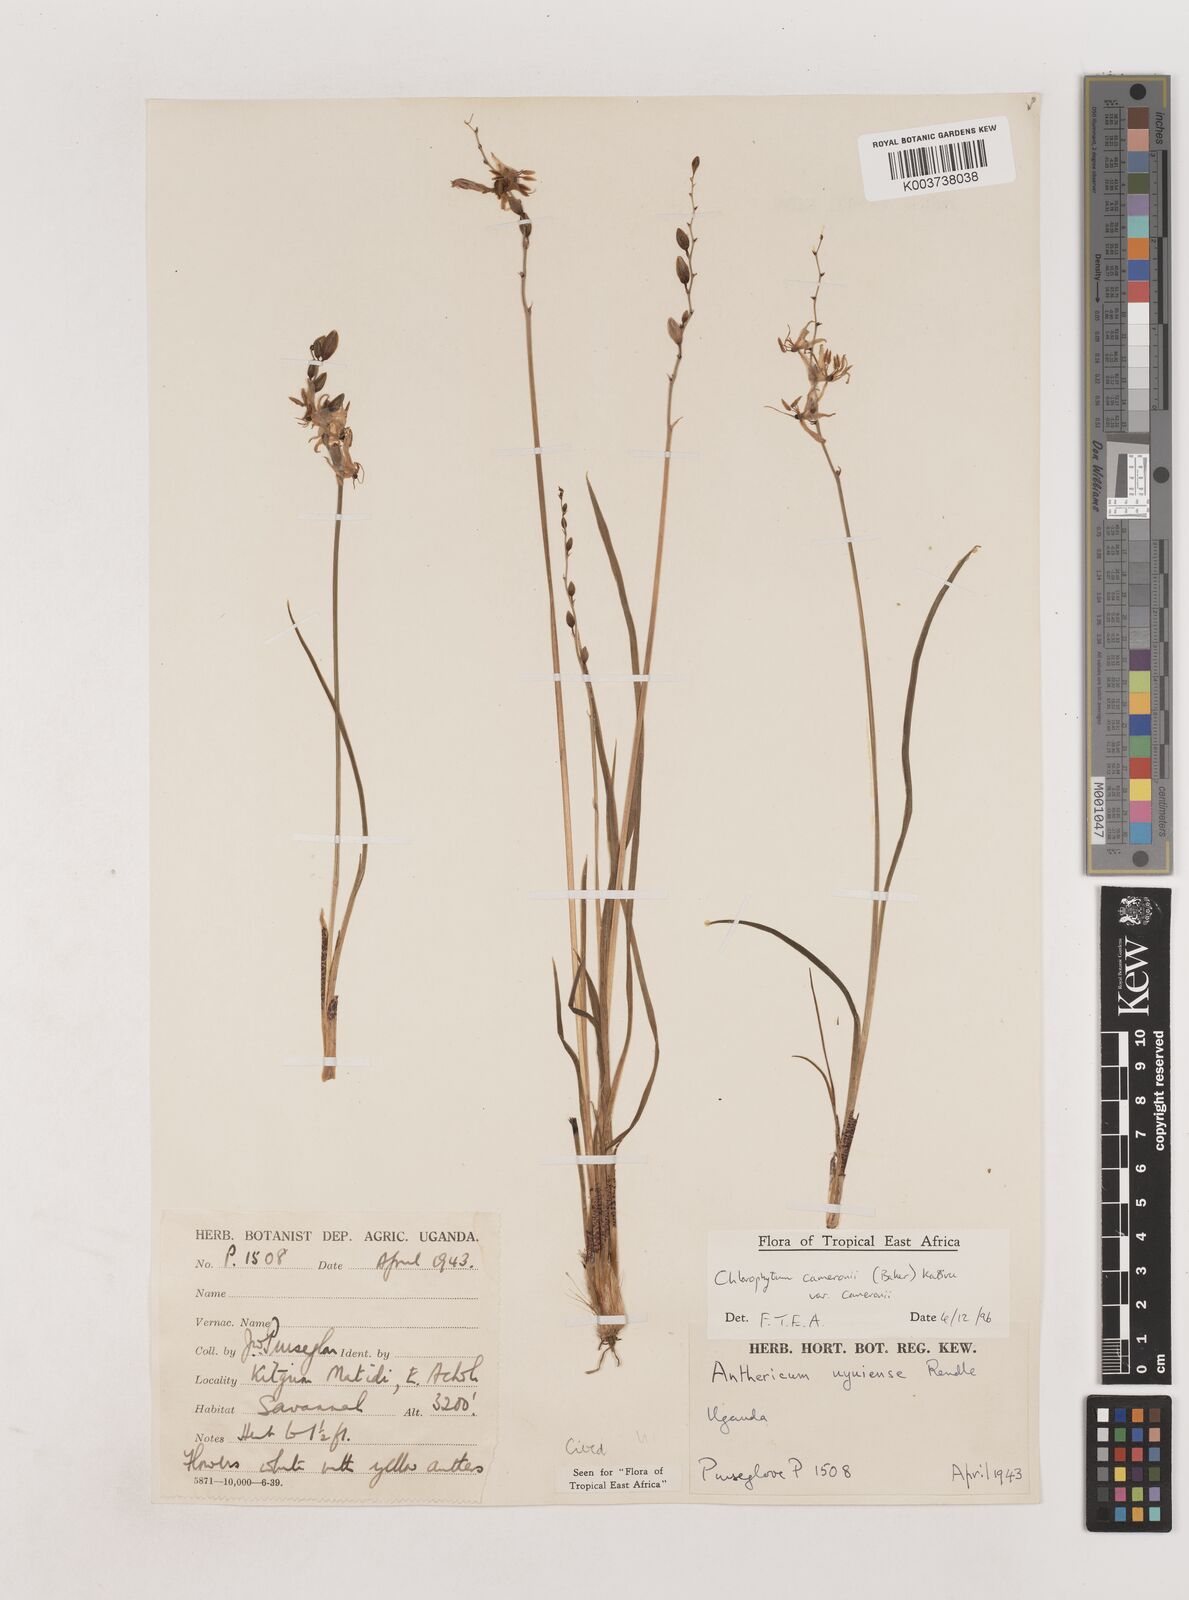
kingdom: Plantae
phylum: Tracheophyta
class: Liliopsida
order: Asparagales
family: Asparagaceae
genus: Chlorophytum
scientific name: Chlorophytum cameronii
